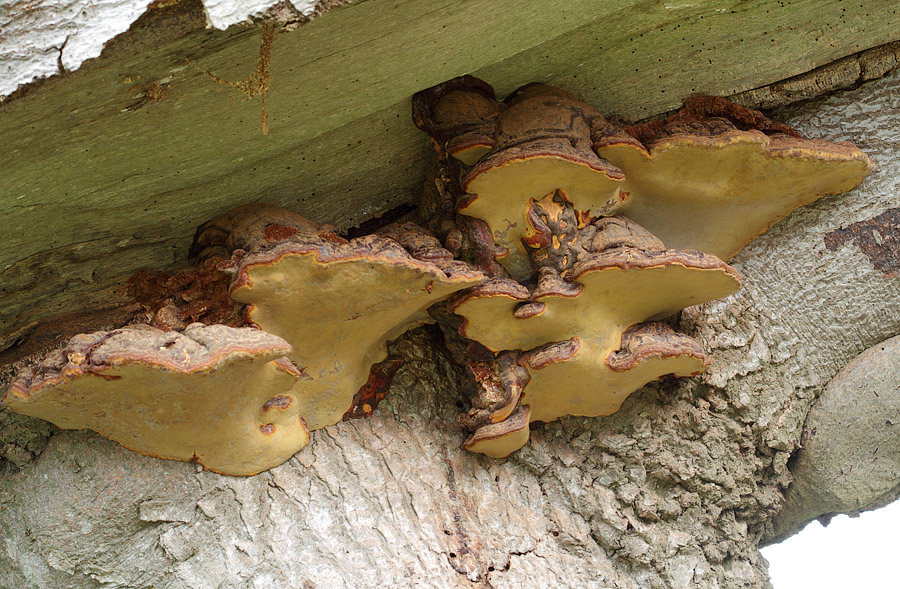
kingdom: Fungi
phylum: Basidiomycota
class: Agaricomycetes
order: Polyporales
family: Polyporaceae
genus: Ganoderma
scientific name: Ganoderma pfeifferi
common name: kobberrød lakporesvamp
